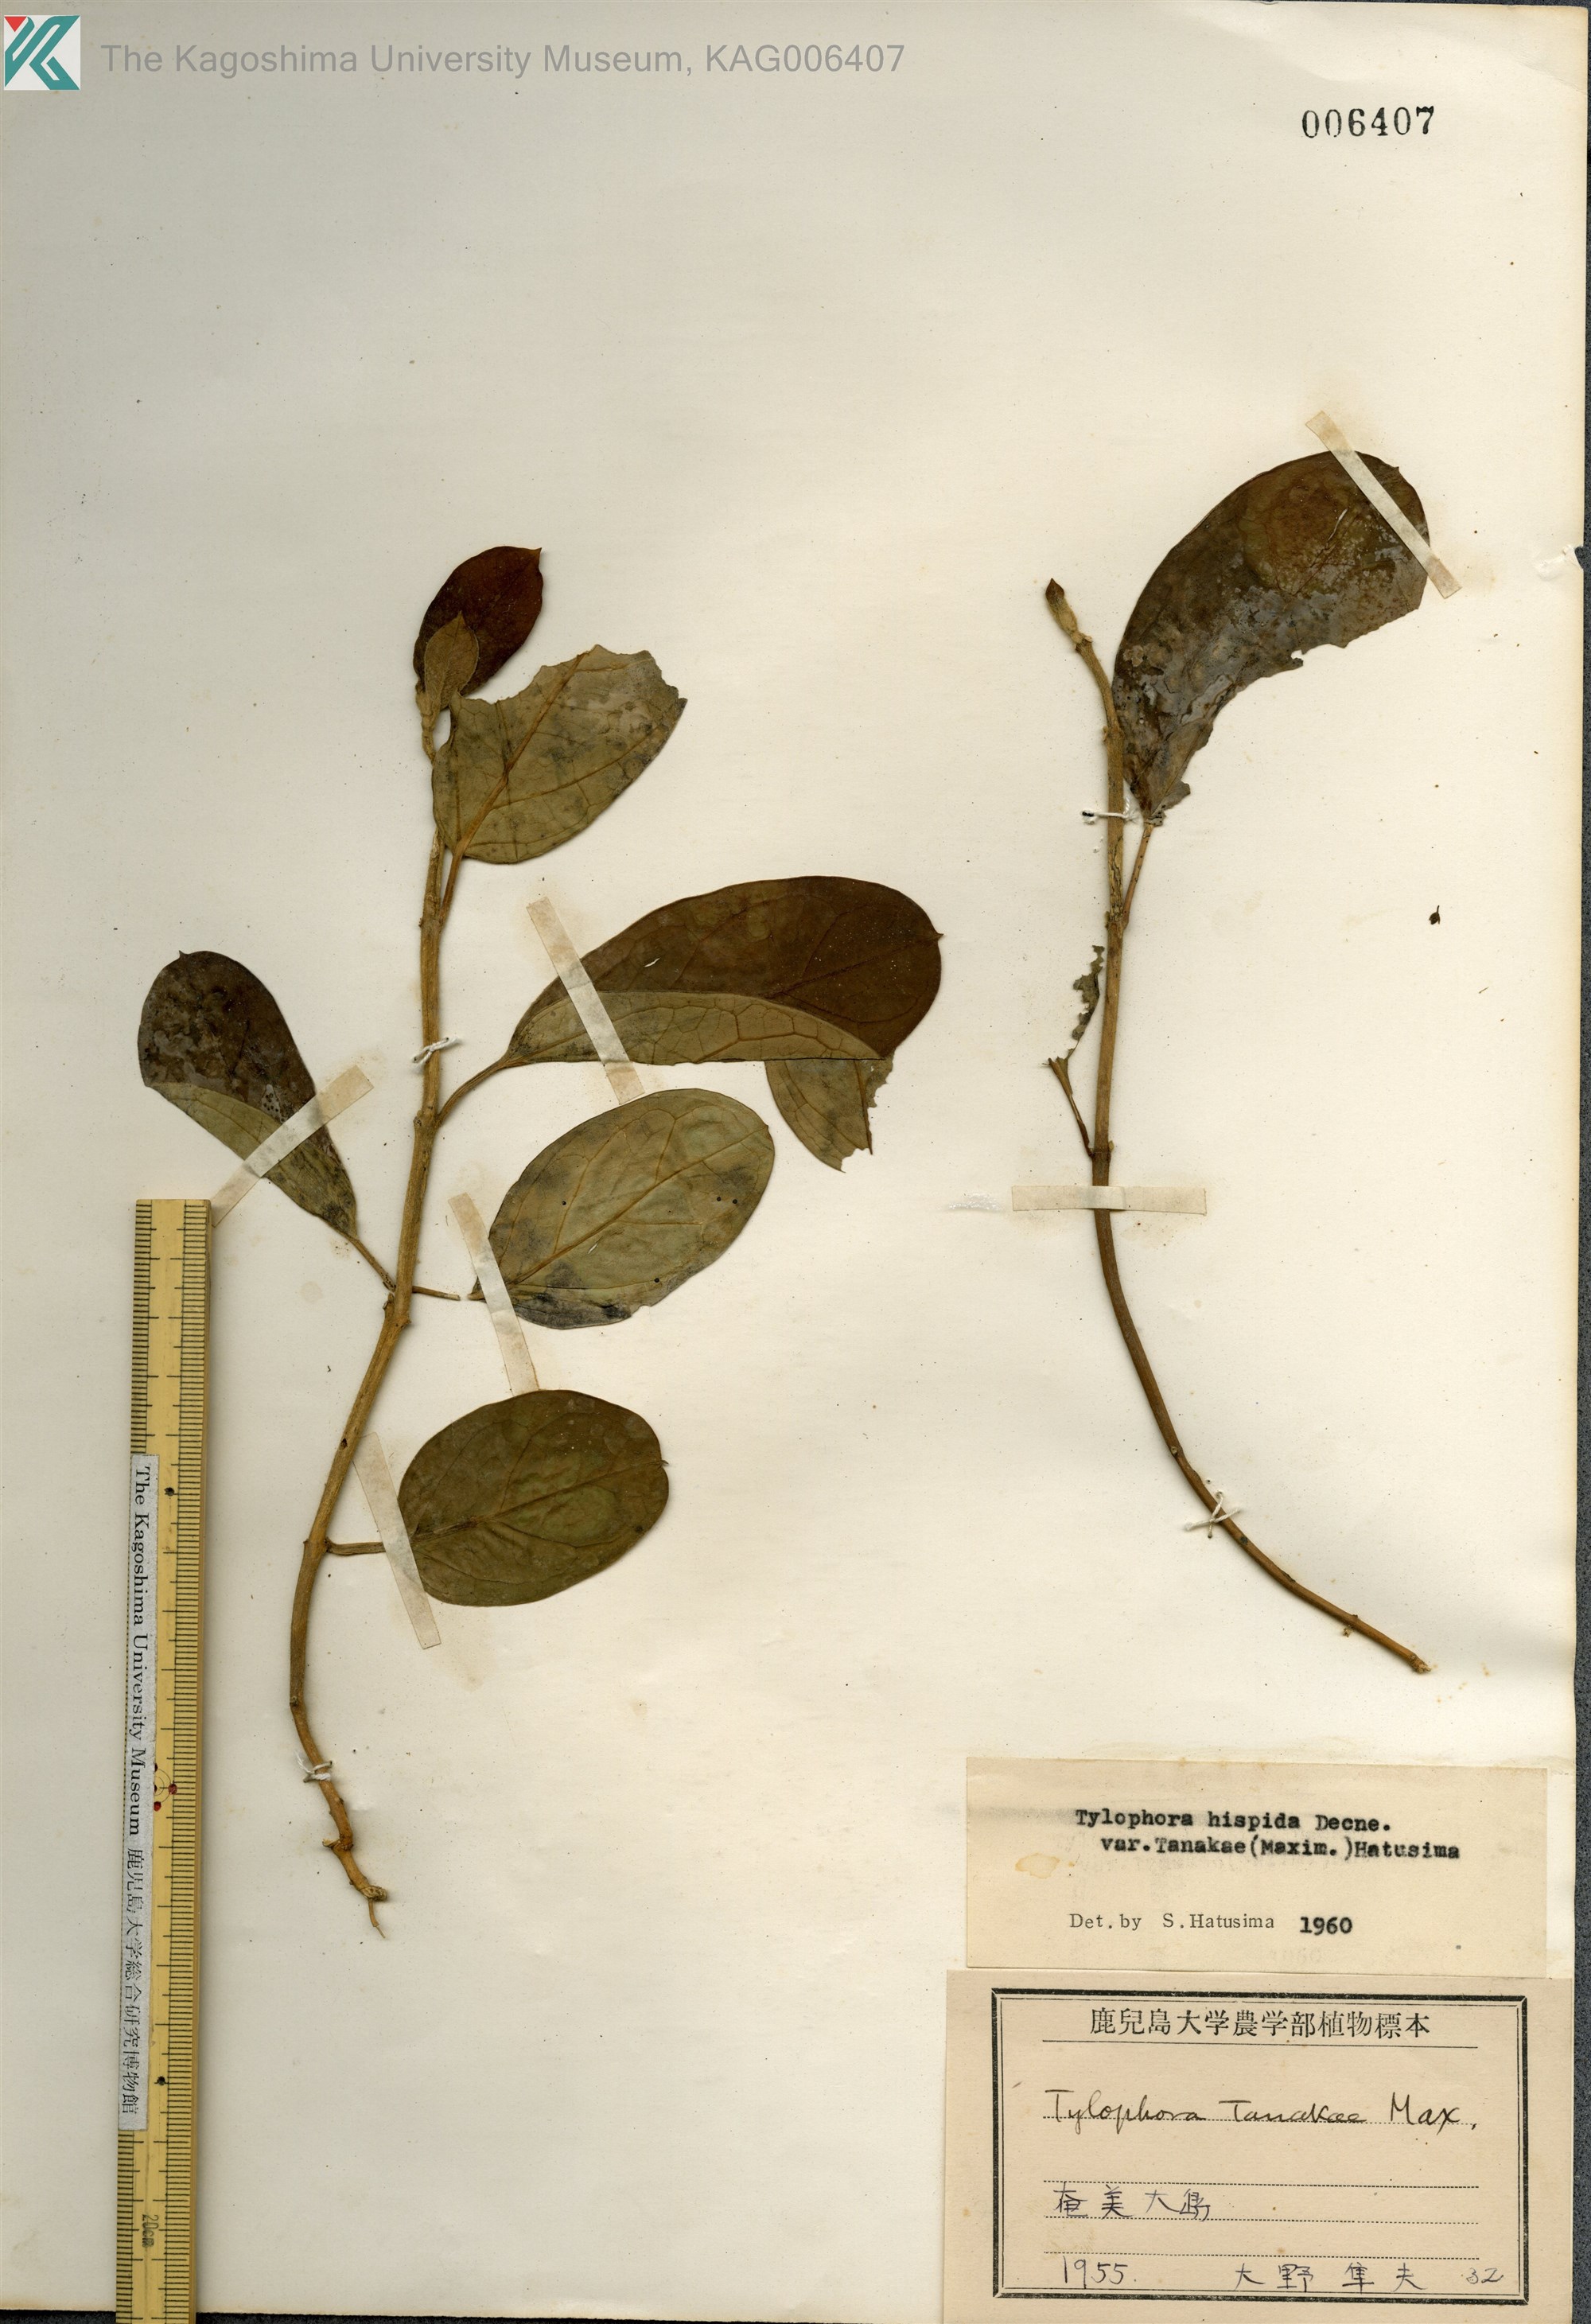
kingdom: Plantae
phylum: Tracheophyta
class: Magnoliopsida
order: Gentianales
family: Apocynaceae
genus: Vincetoxicum
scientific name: Vincetoxicum Tylophora tanakae
